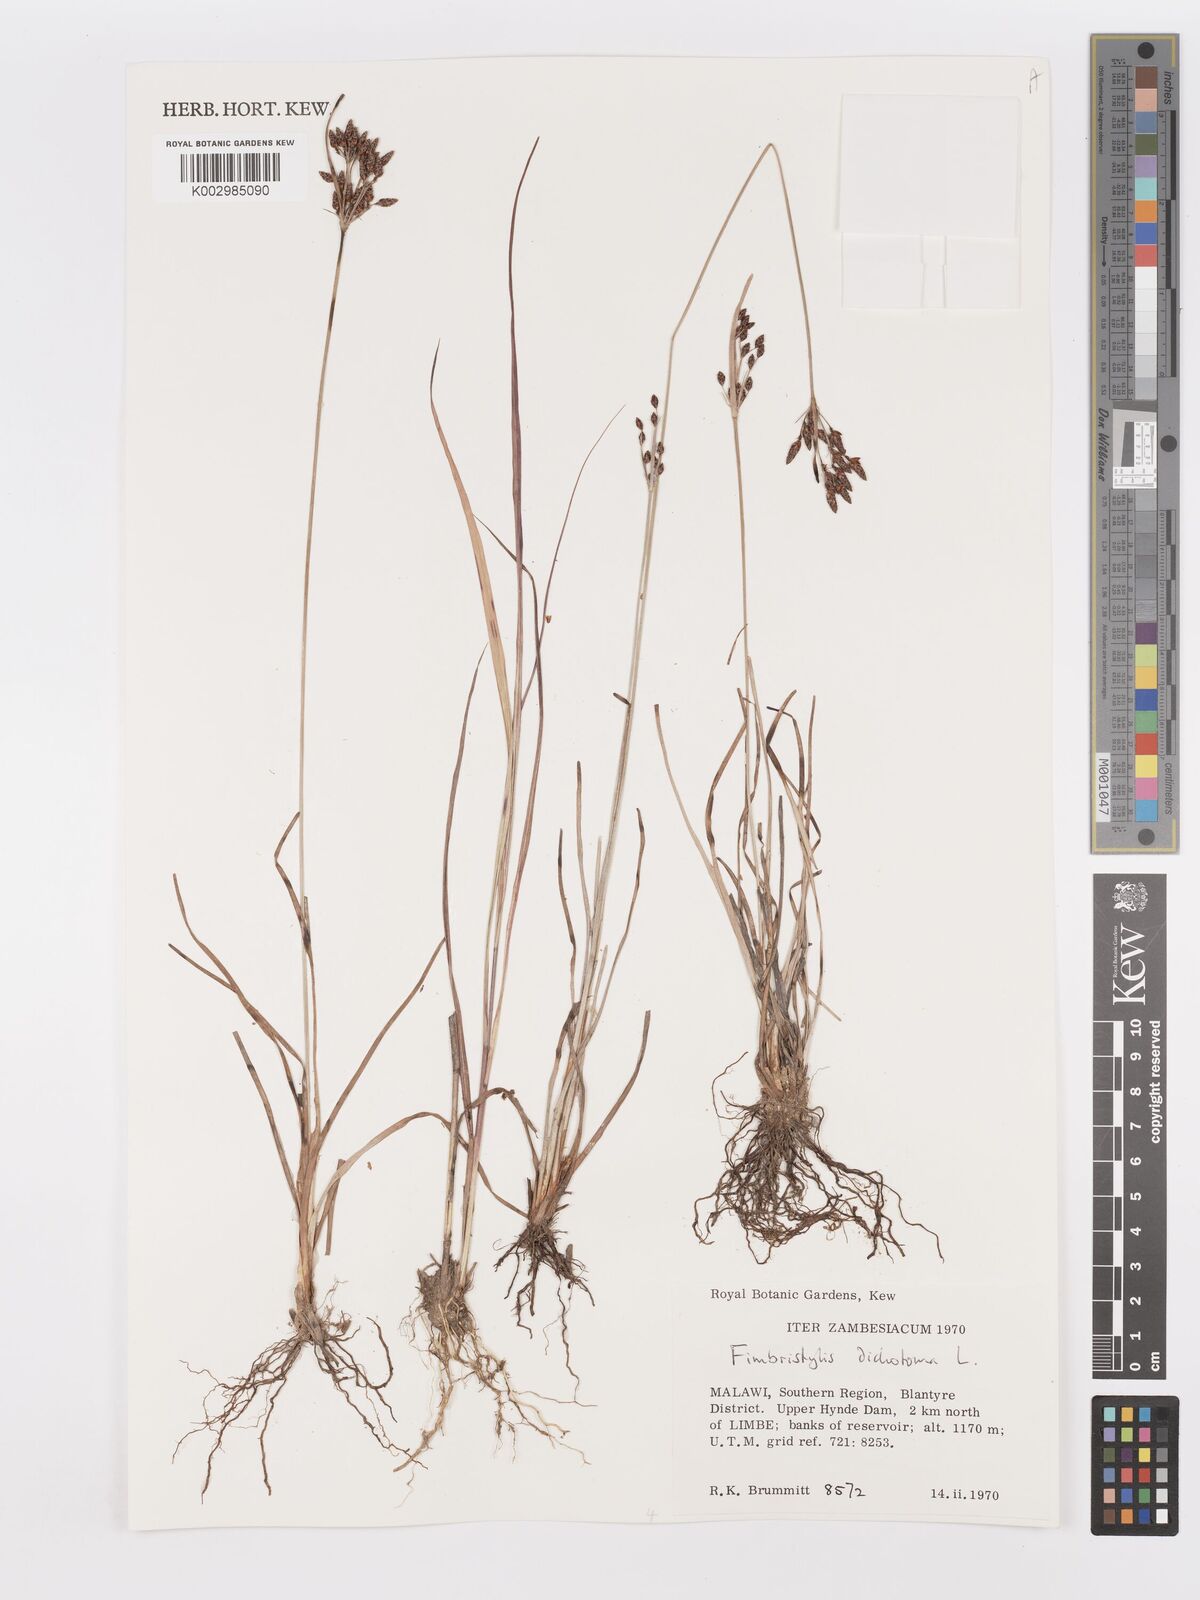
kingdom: Plantae
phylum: Tracheophyta
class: Liliopsida
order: Poales
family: Cyperaceae
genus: Fimbristylis
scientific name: Fimbristylis dichotoma
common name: Forked fimbry
